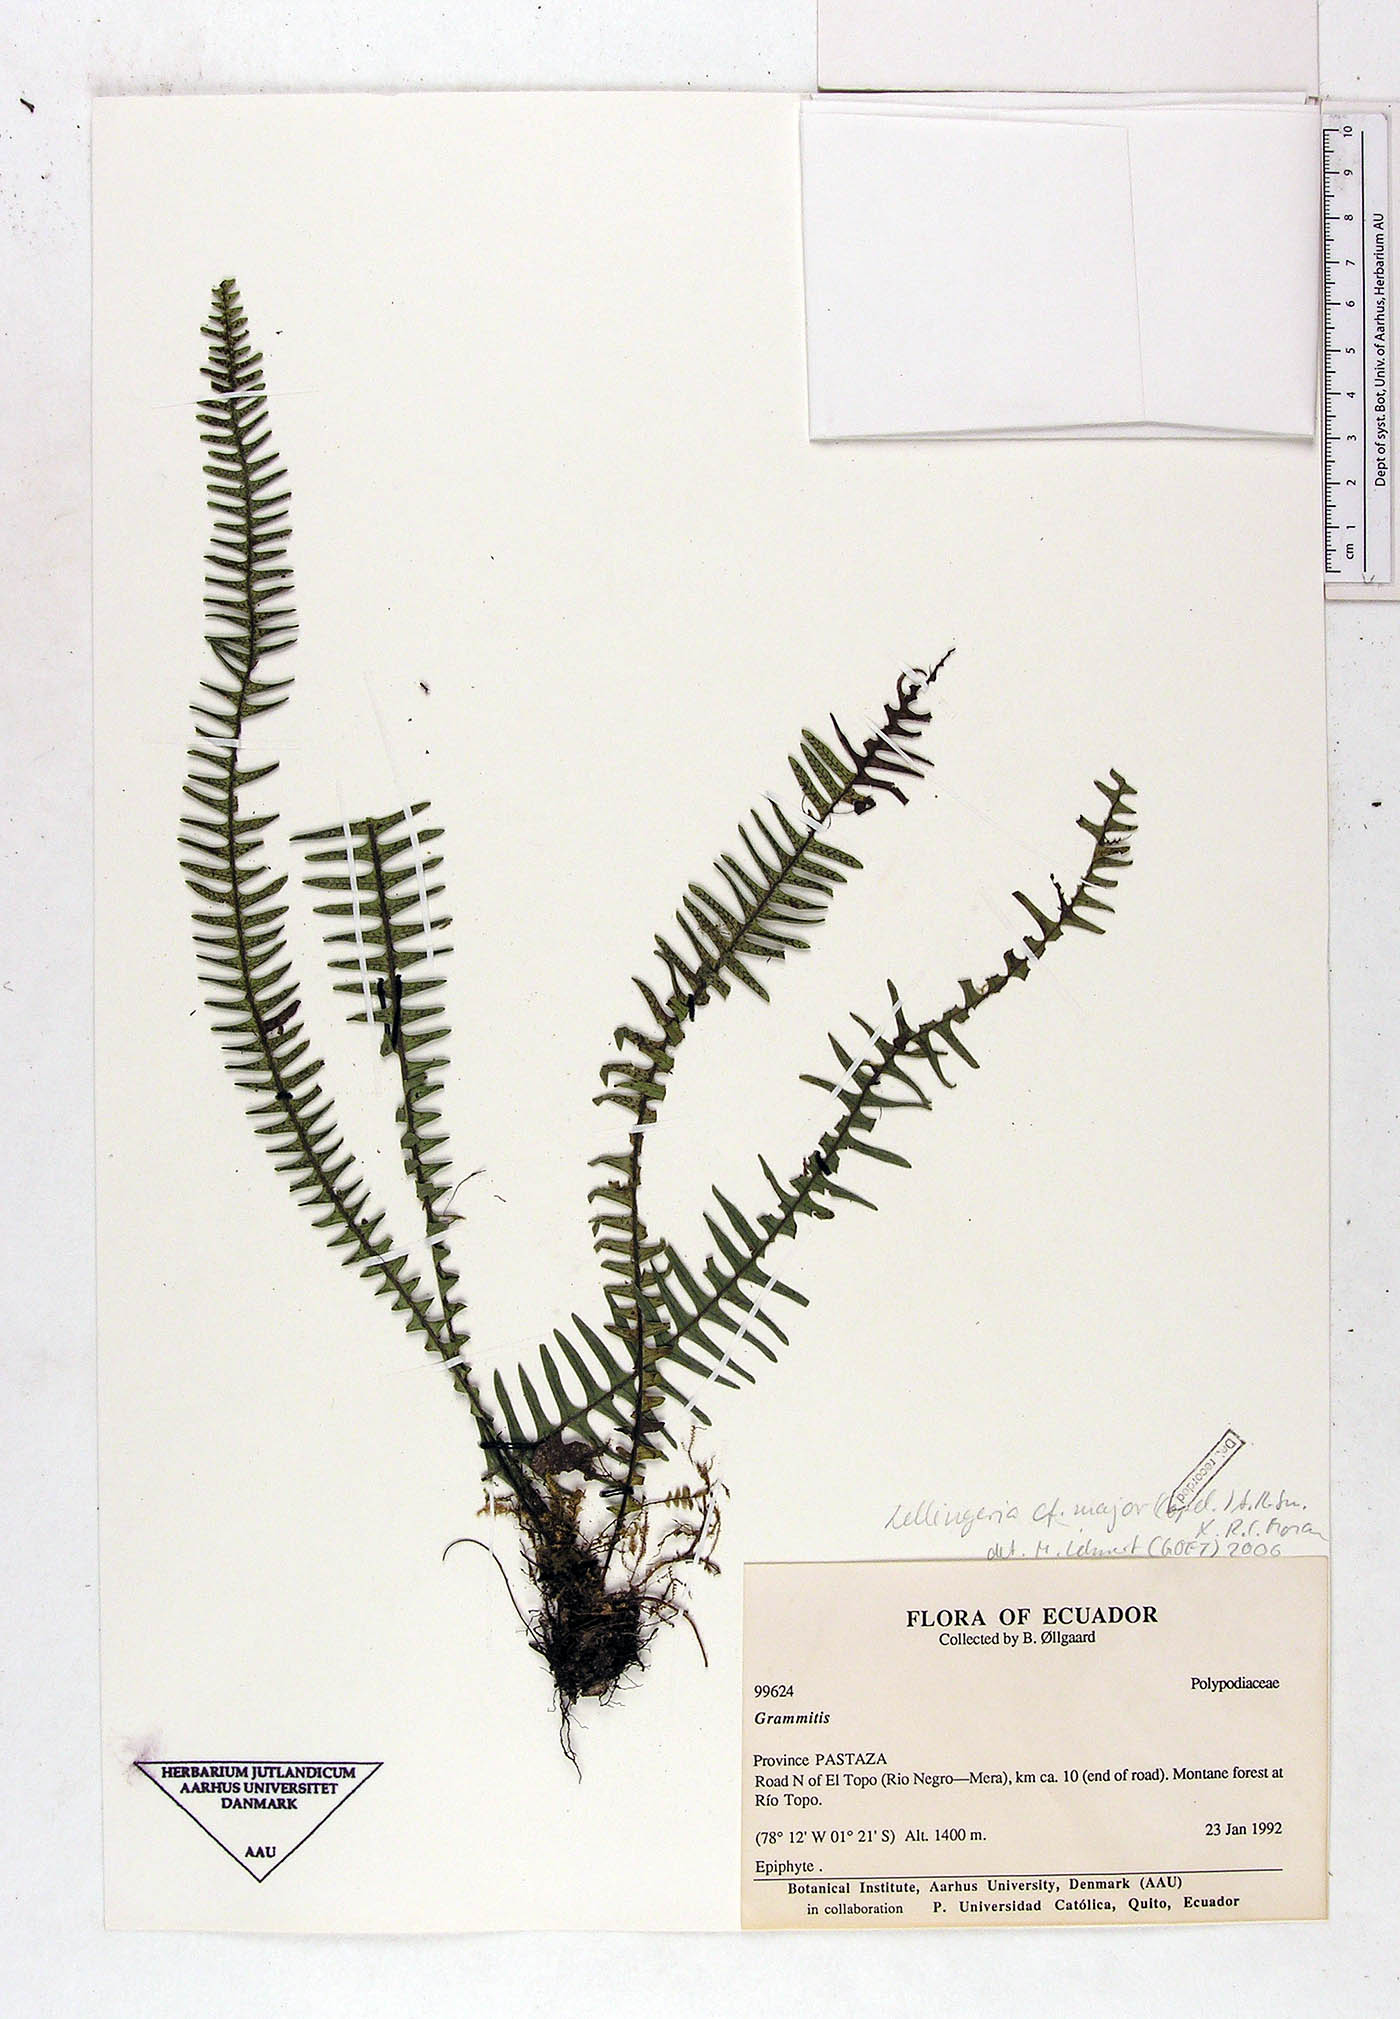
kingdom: Plantae
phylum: Tracheophyta
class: Polypodiopsida
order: Polypodiales
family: Polypodiaceae
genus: Ascogrammitis
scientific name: Ascogrammitis loxensis
